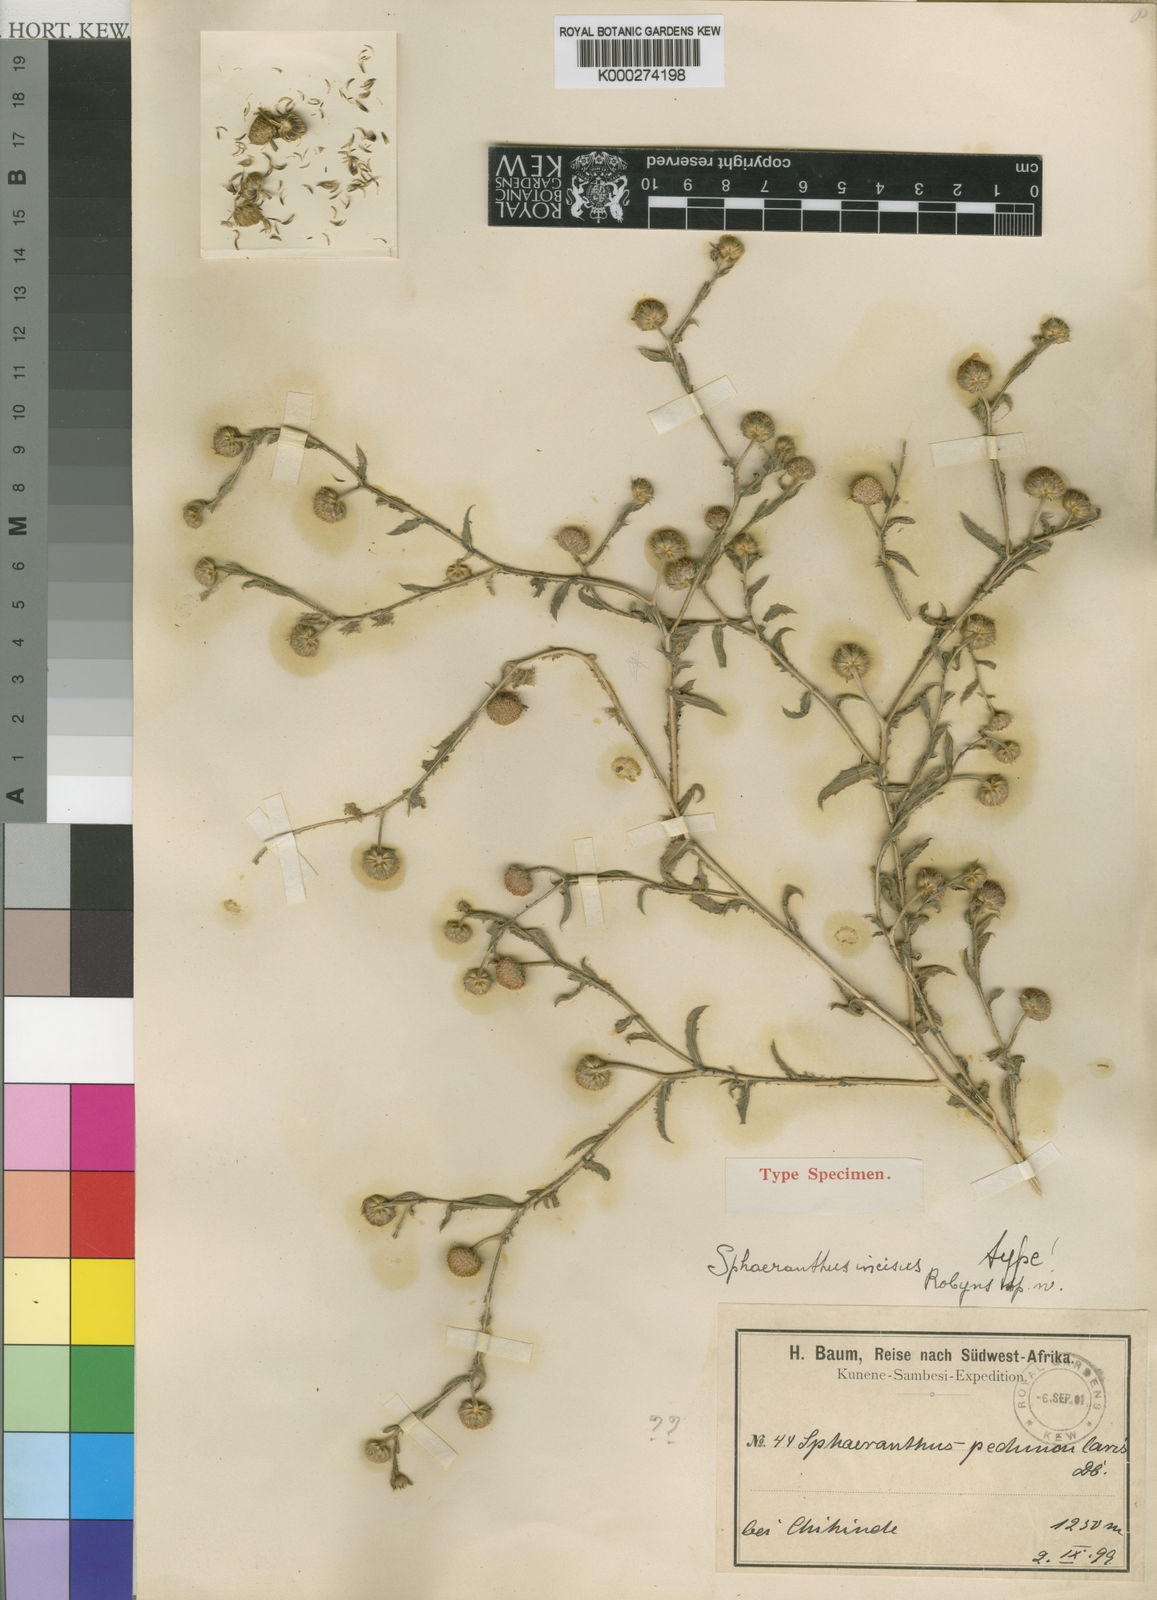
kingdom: Plantae
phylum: Tracheophyta
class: Magnoliopsida
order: Asterales
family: Asteraceae
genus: Sphaeranthus
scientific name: Sphaeranthus peduncularis
